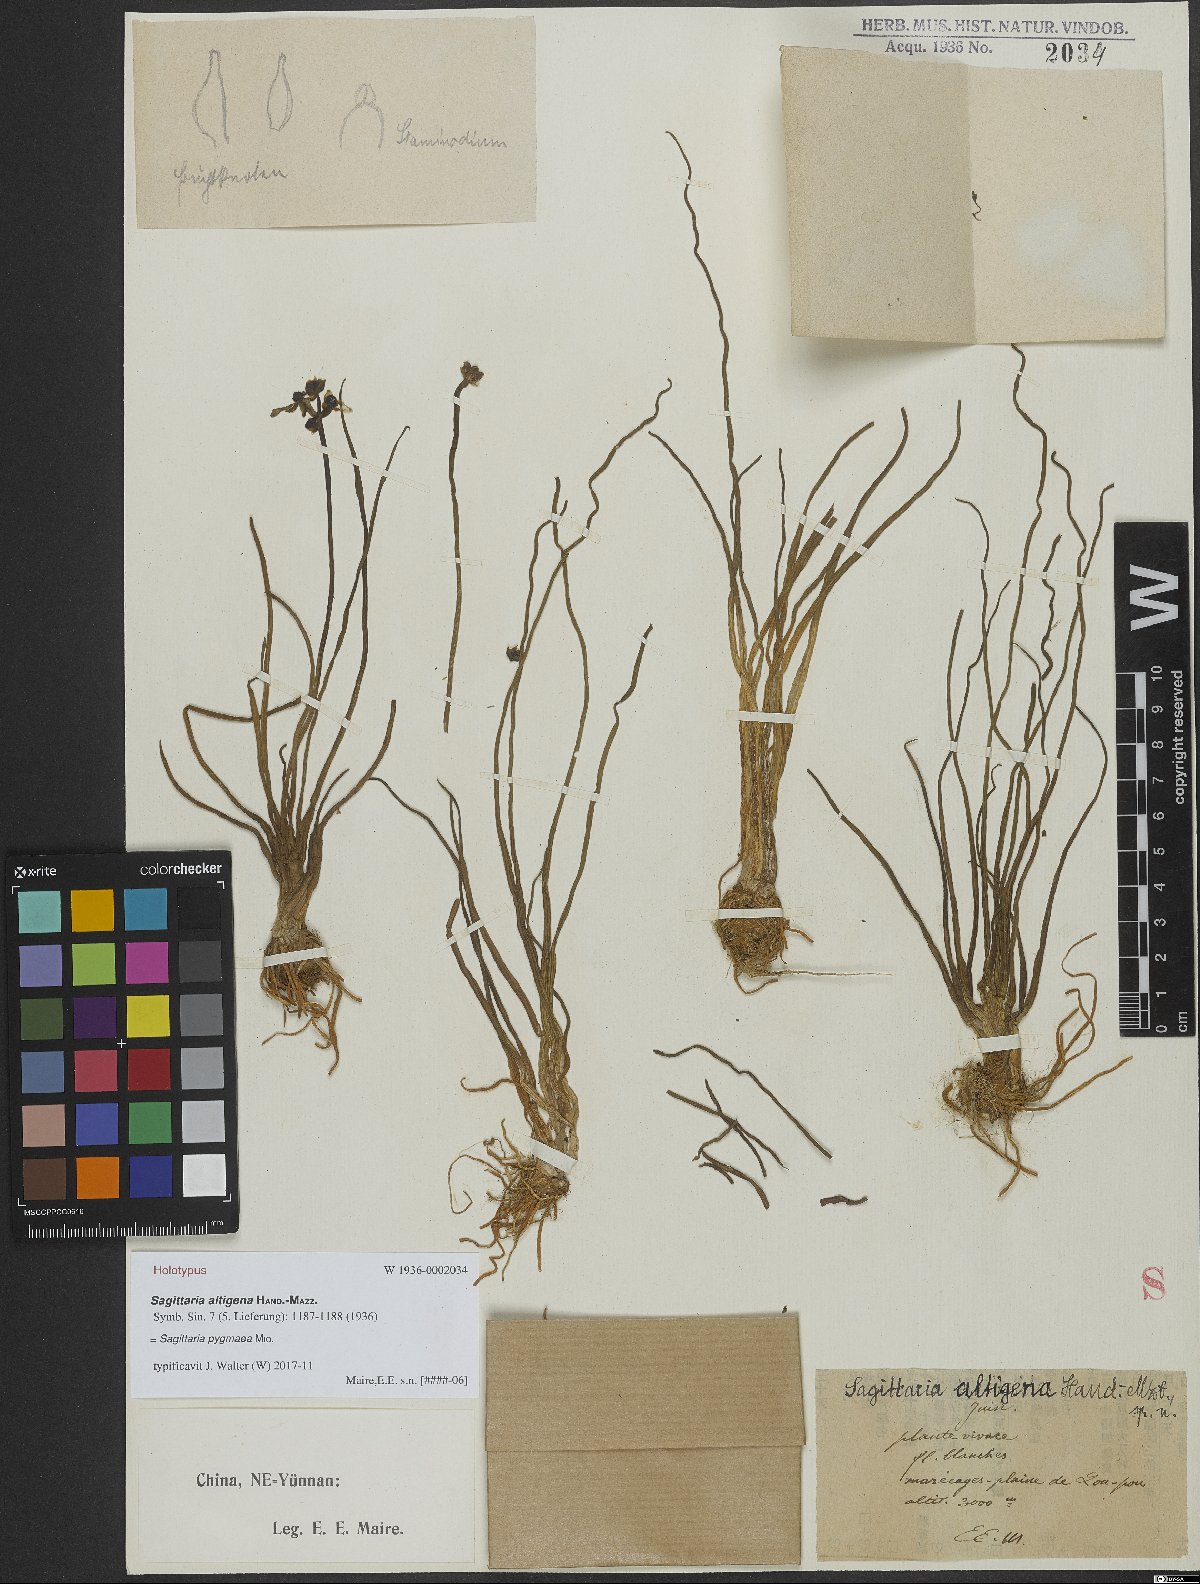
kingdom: Plantae
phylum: Tracheophyta
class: Liliopsida
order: Alismatales
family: Alismataceae
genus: Sagittaria
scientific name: Sagittaria pygmaea
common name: Pygmy arrowhead
